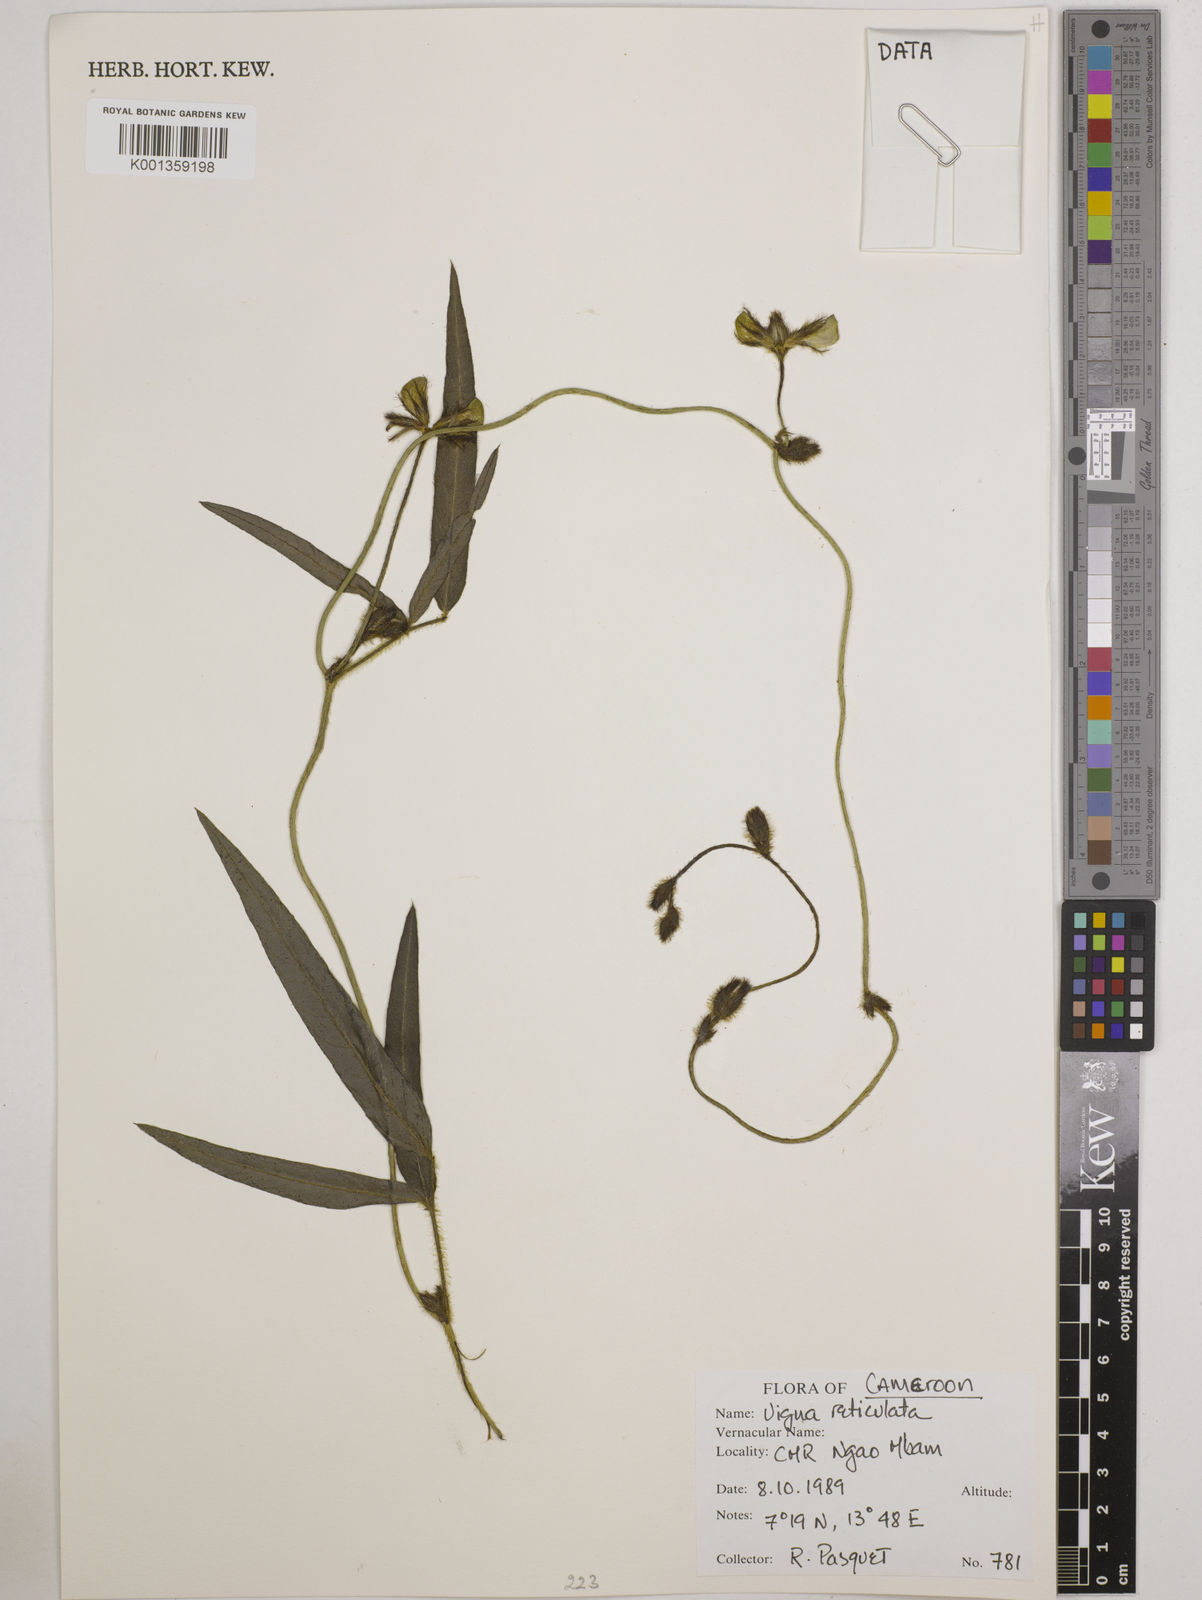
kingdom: Plantae
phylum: Tracheophyta
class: Magnoliopsida
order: Fabales
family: Fabaceae
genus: Vigna
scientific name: Vigna reticulata
